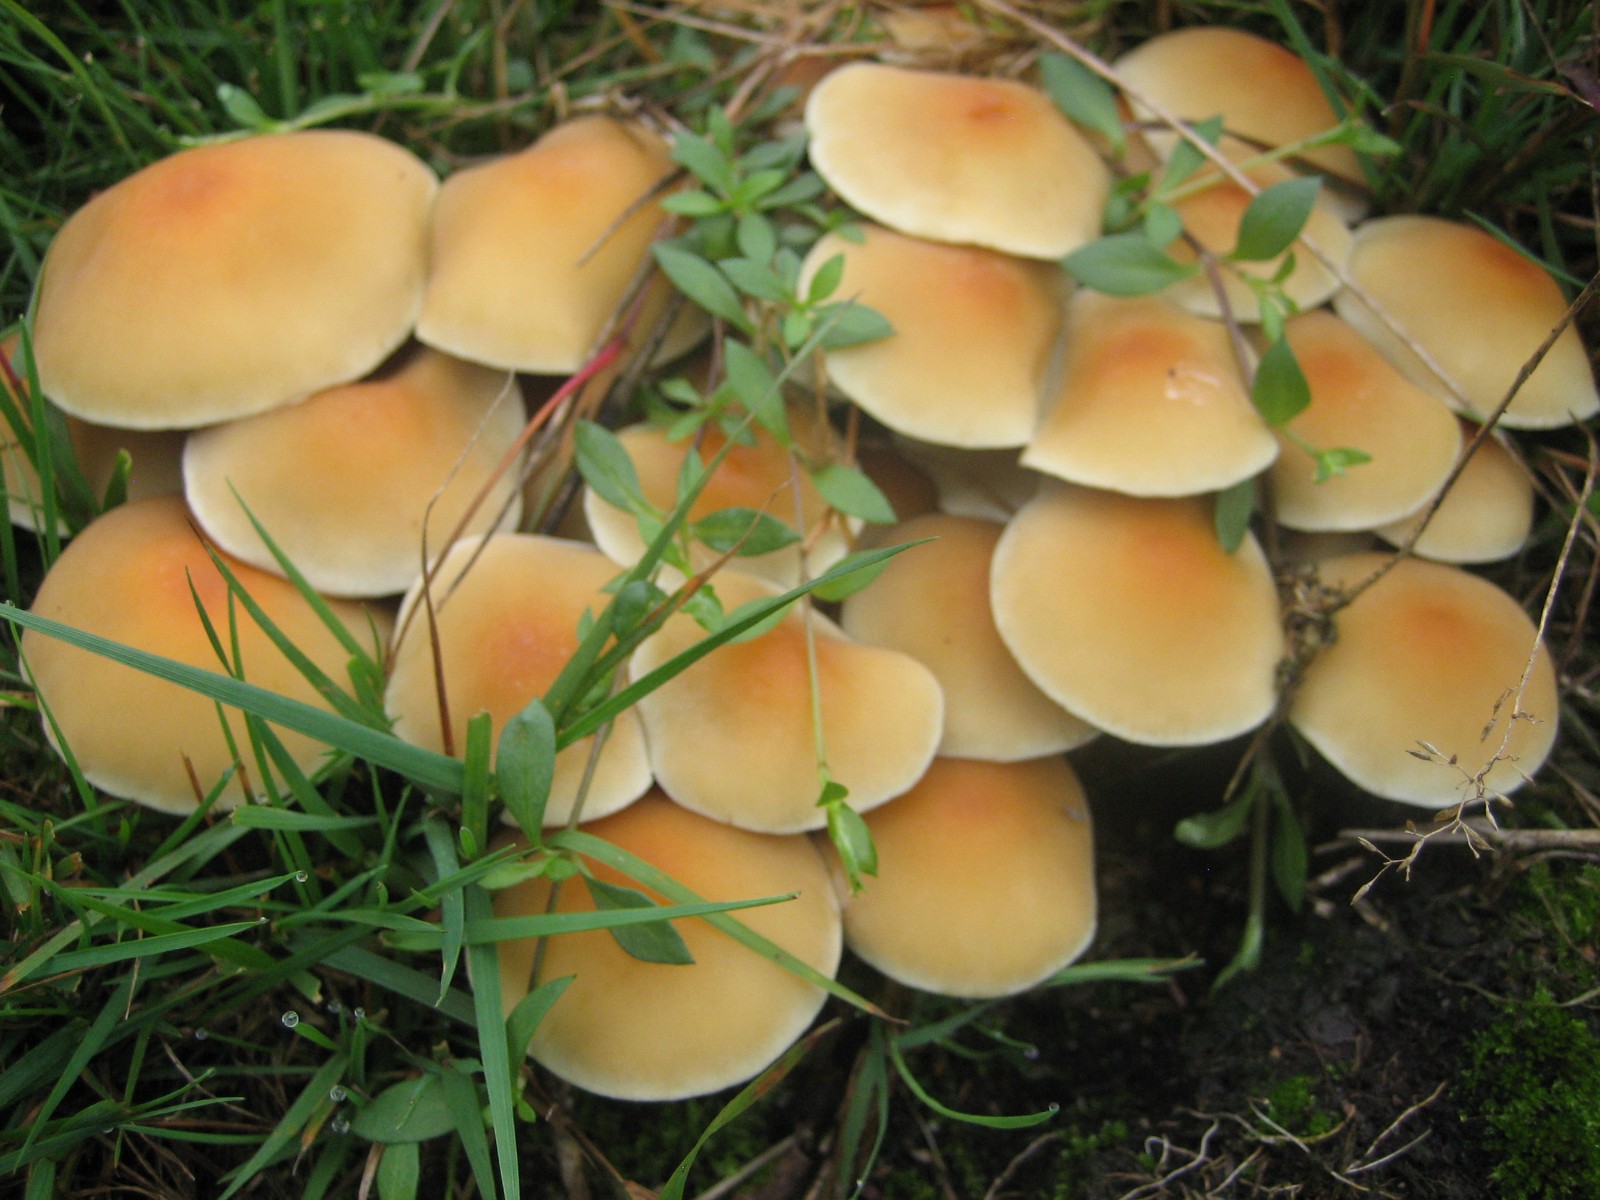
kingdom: Fungi
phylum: Basidiomycota
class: Agaricomycetes
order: Agaricales
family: Strophariaceae
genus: Hypholoma
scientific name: Hypholoma fasciculare
